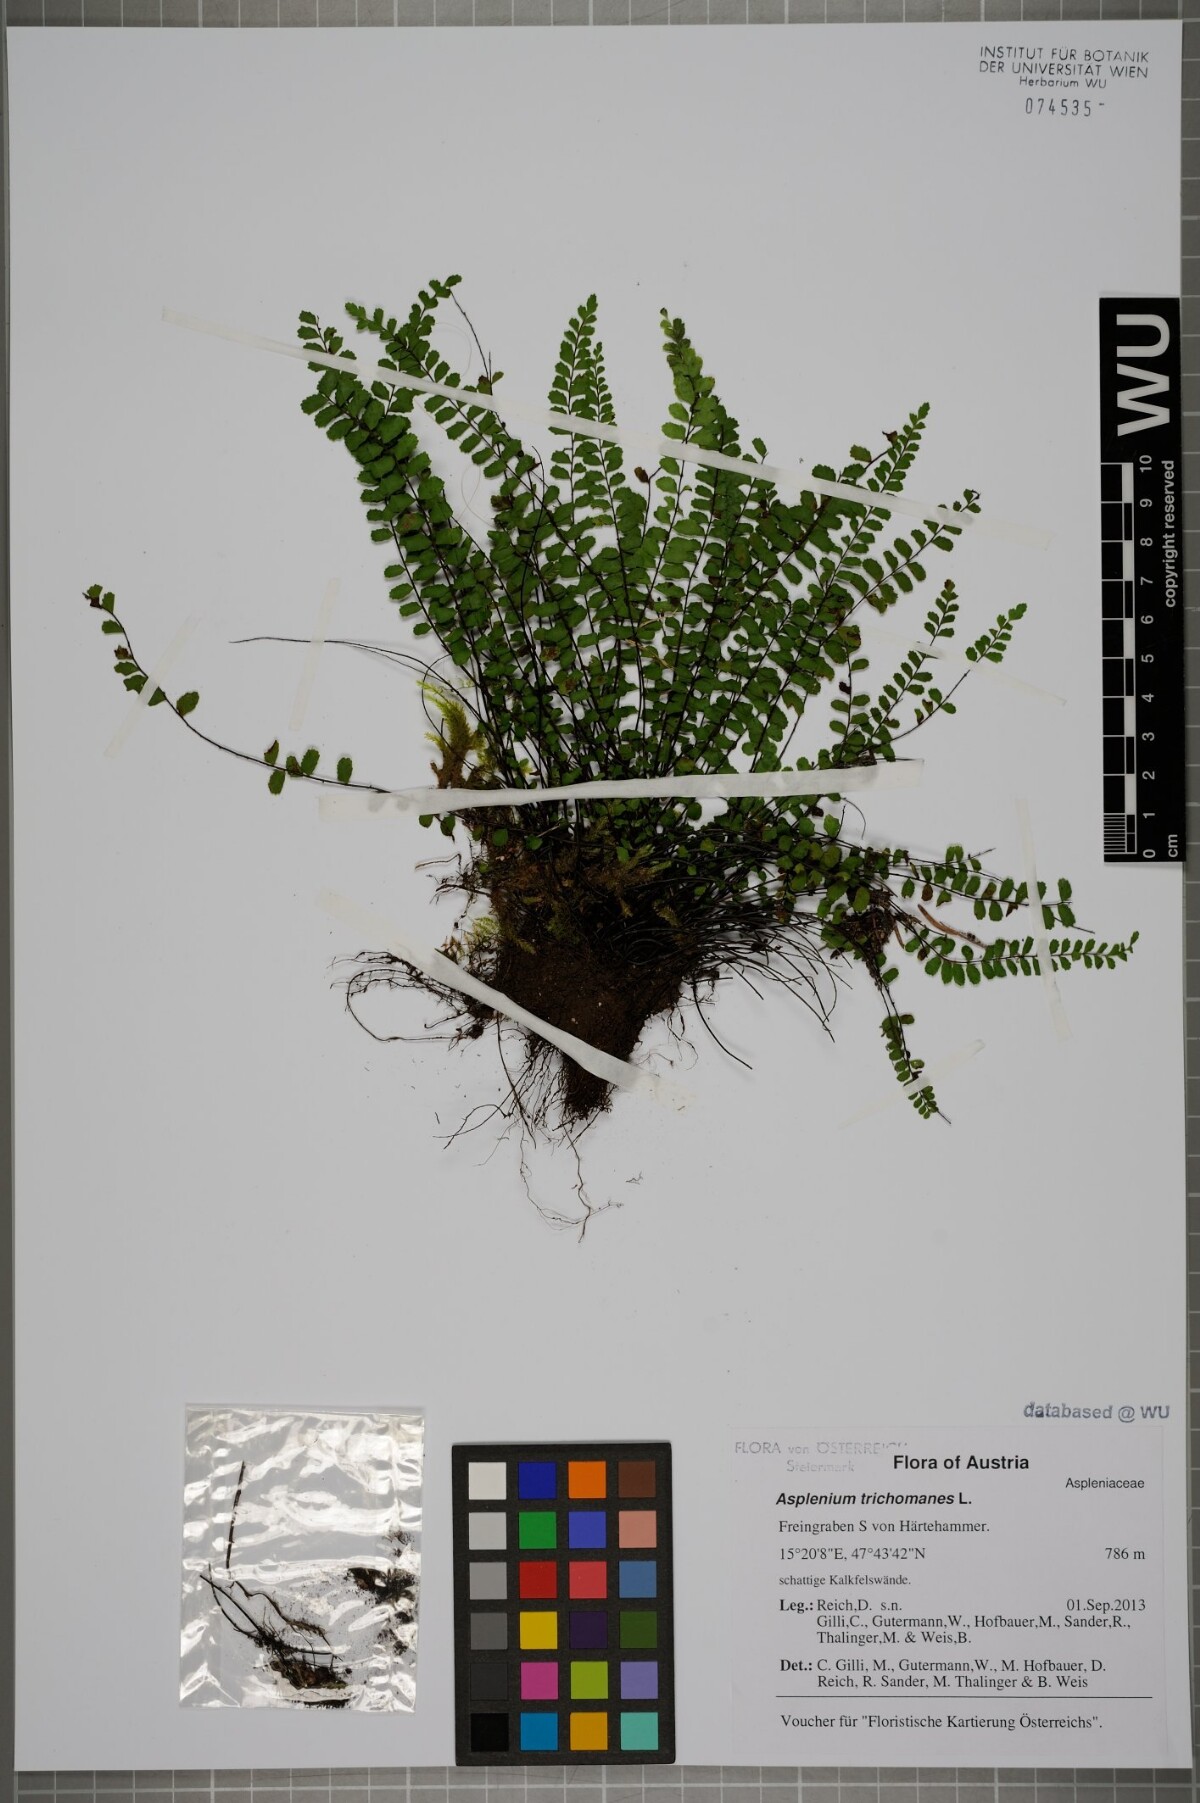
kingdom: Plantae
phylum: Tracheophyta
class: Polypodiopsida
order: Polypodiales
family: Aspleniaceae
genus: Asplenium
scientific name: Asplenium trichomanes
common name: Maidenhair spleenwort
